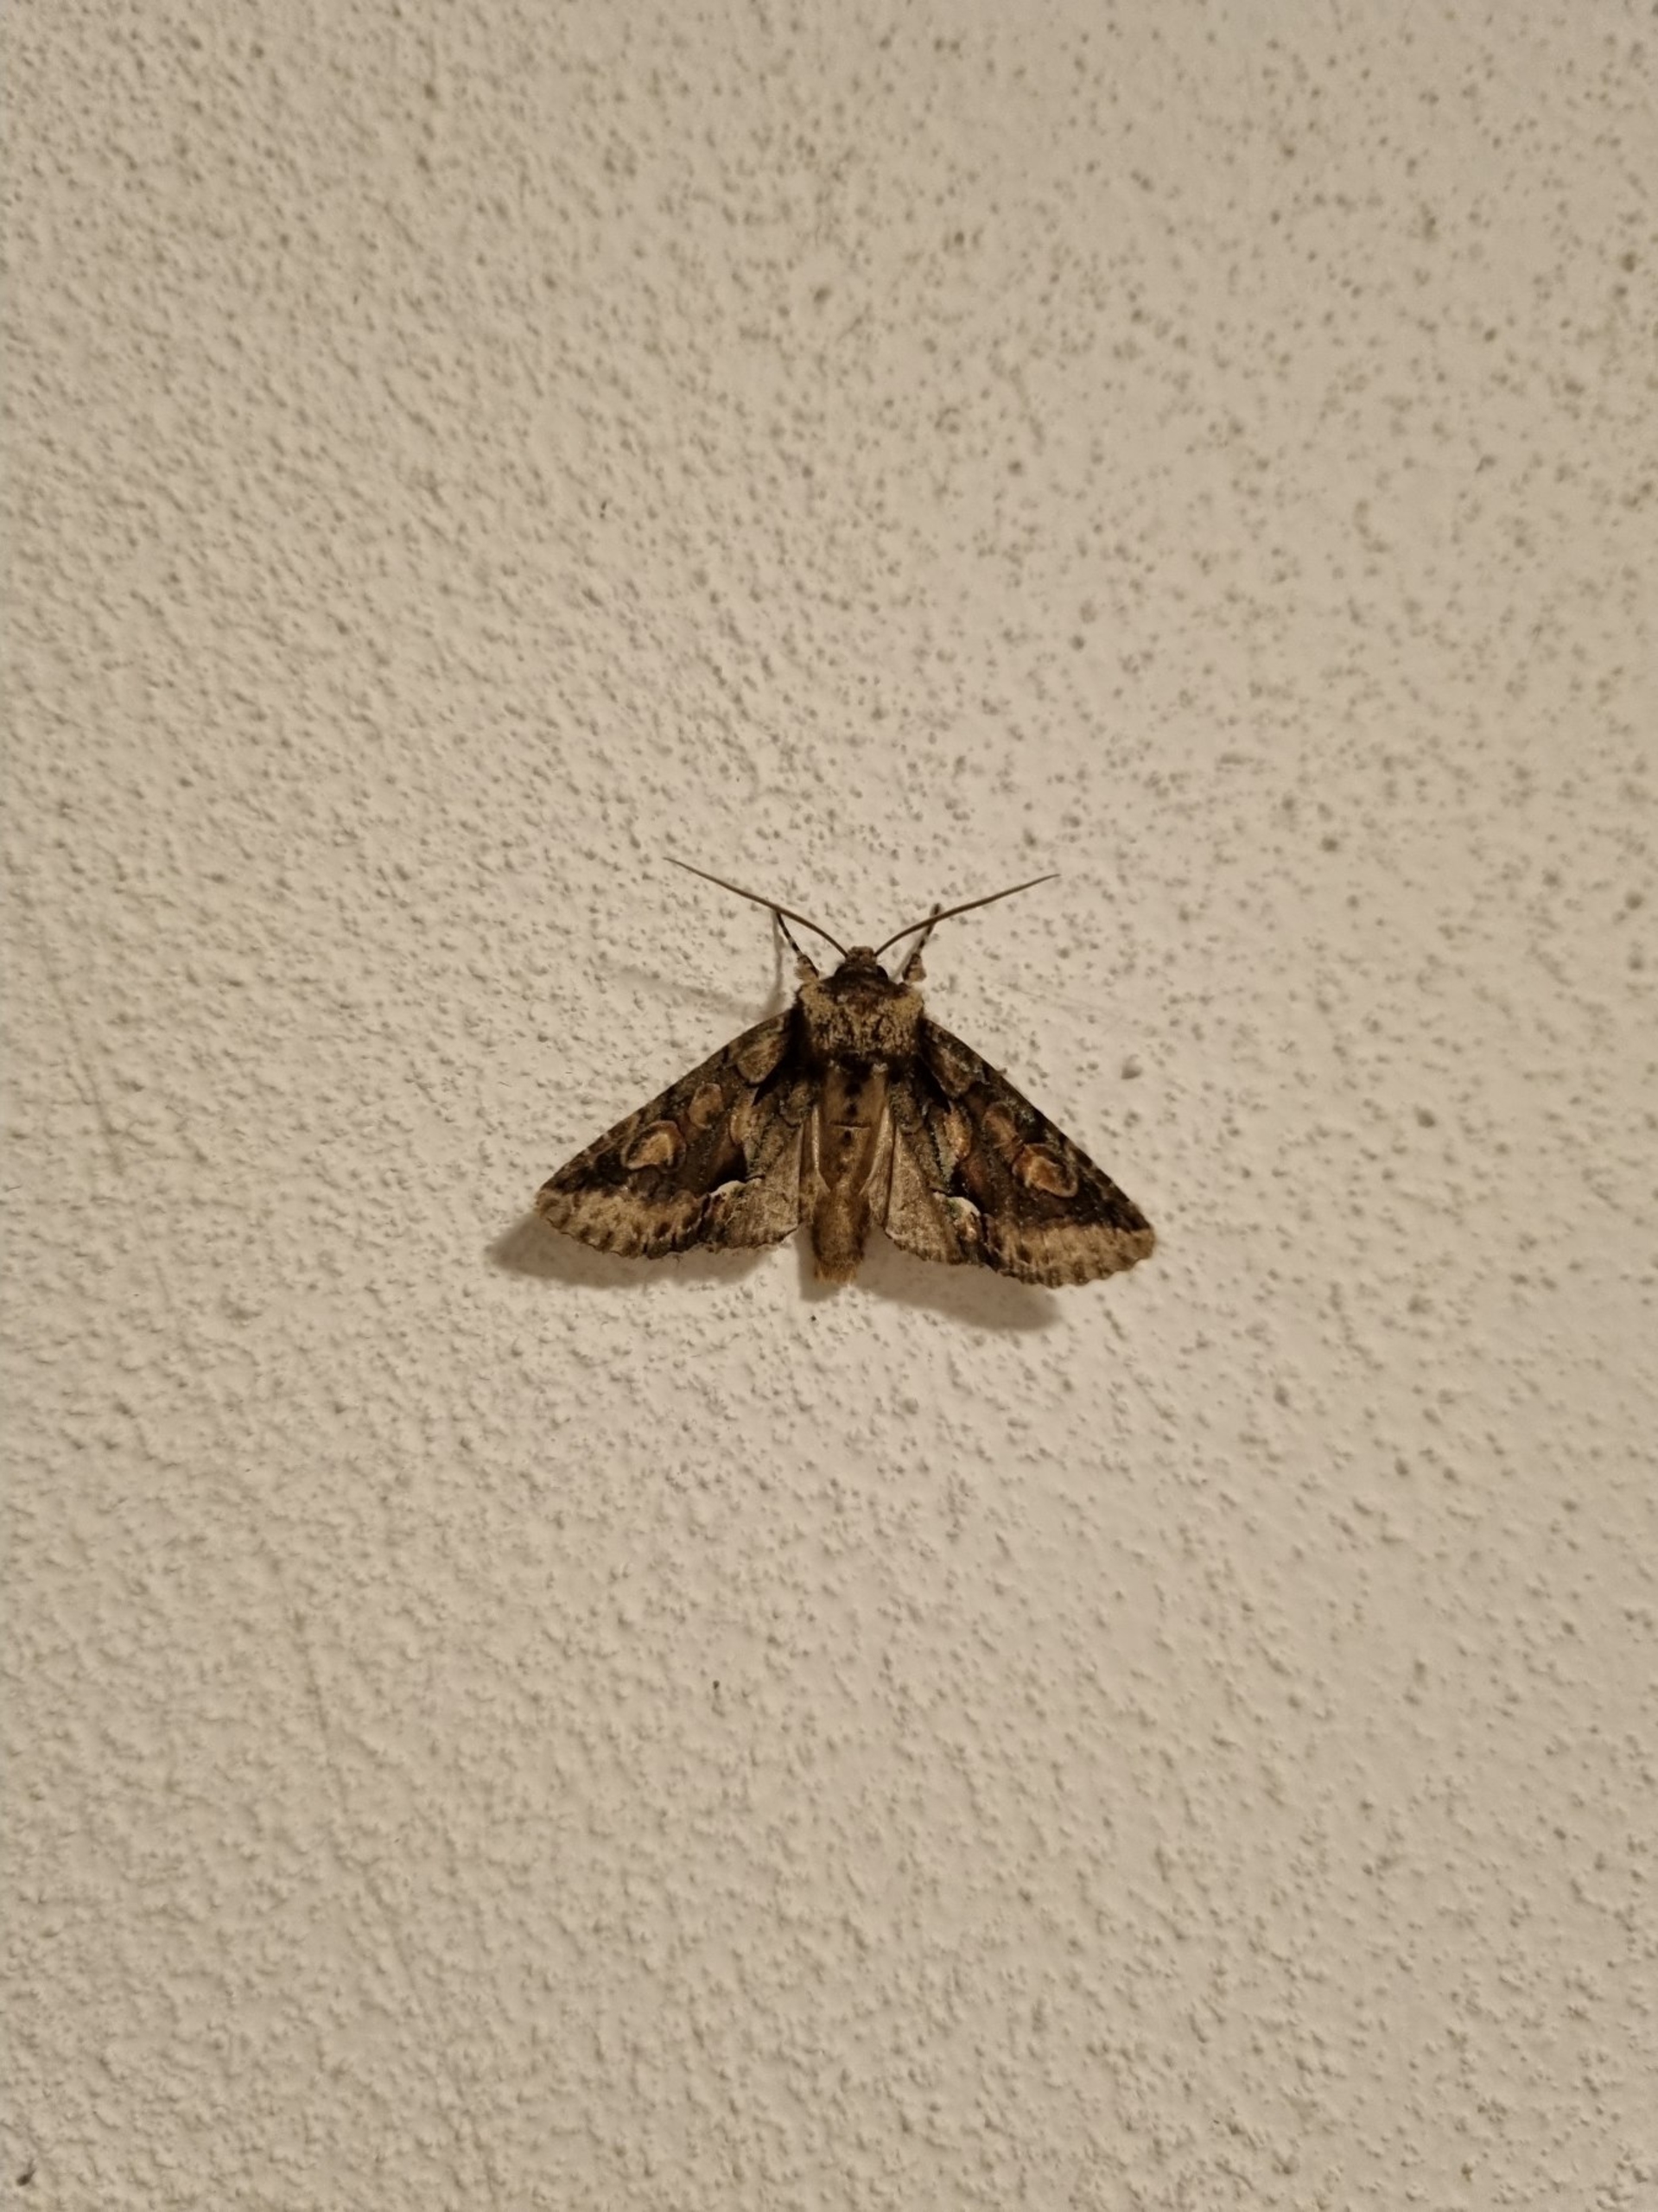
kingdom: Animalia
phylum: Arthropoda
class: Insecta
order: Lepidoptera
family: Noctuidae
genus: Allophyes
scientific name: Allophyes oxyacanthae
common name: Tjørneugle
